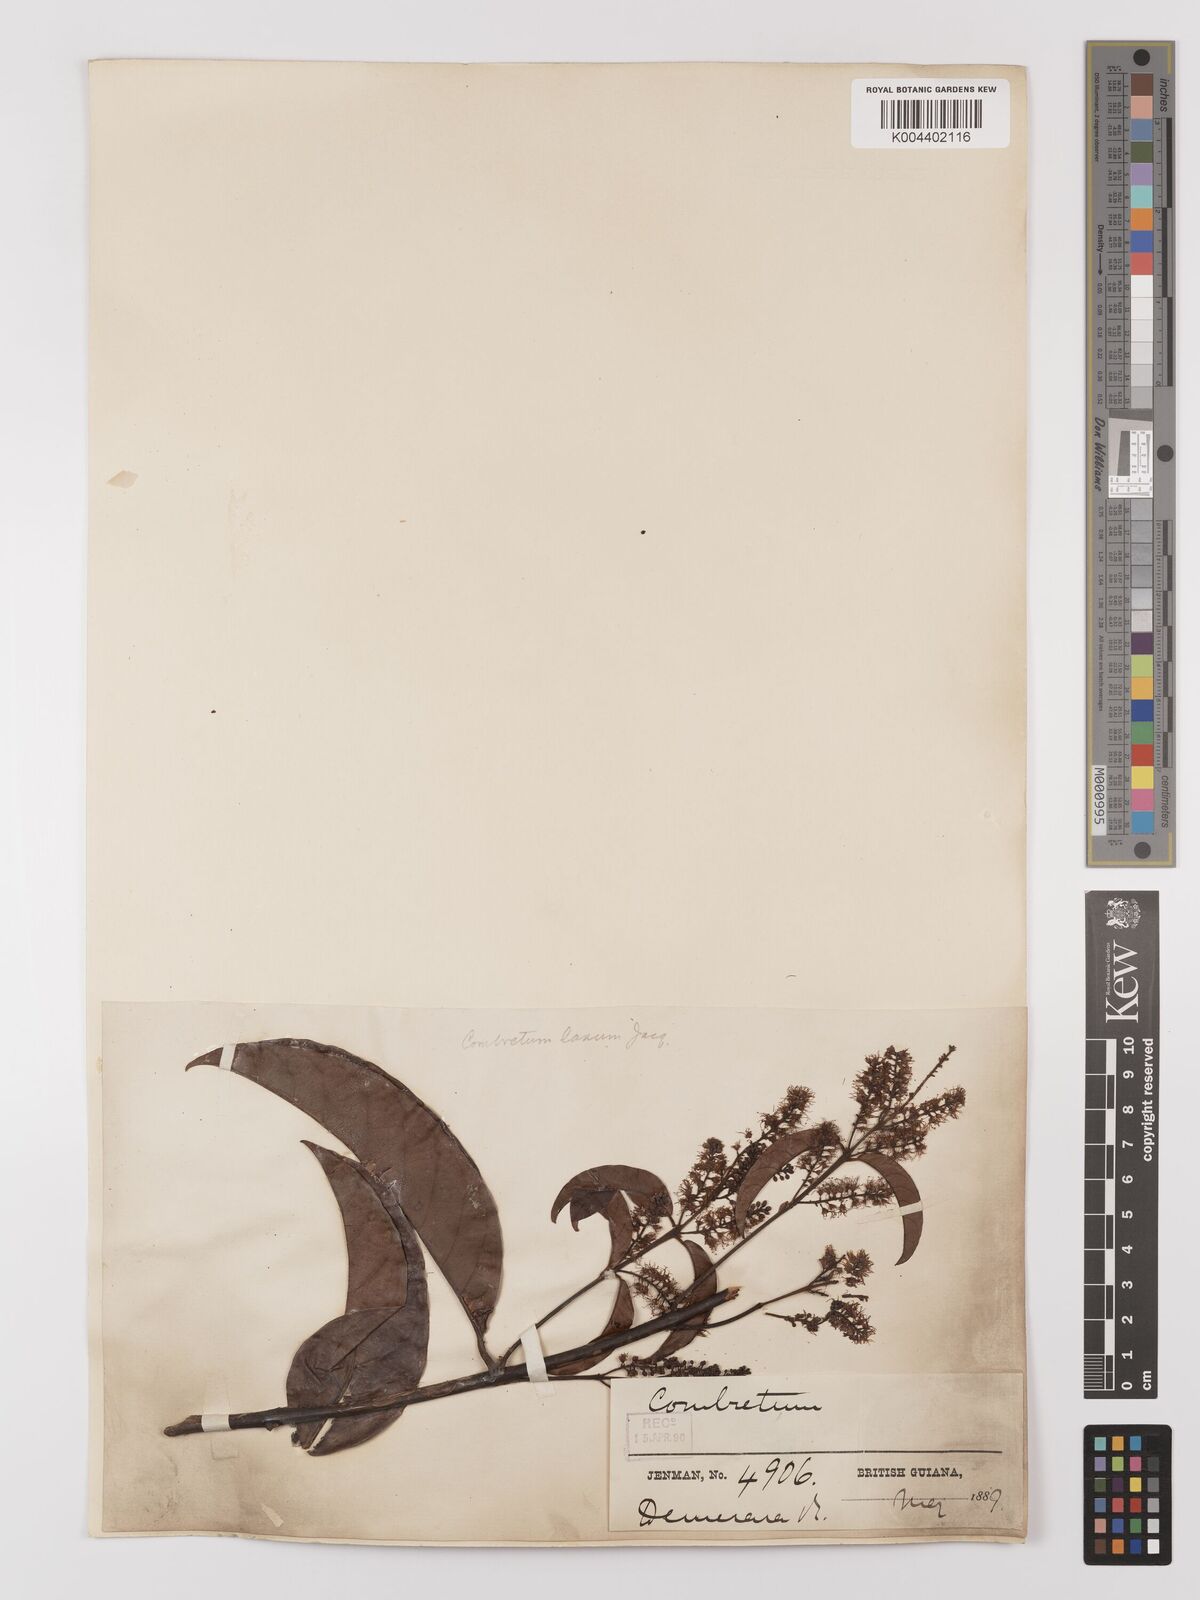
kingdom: Plantae
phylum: Tracheophyta
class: Magnoliopsida
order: Myrtales
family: Combretaceae
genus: Combretum
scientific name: Combretum
